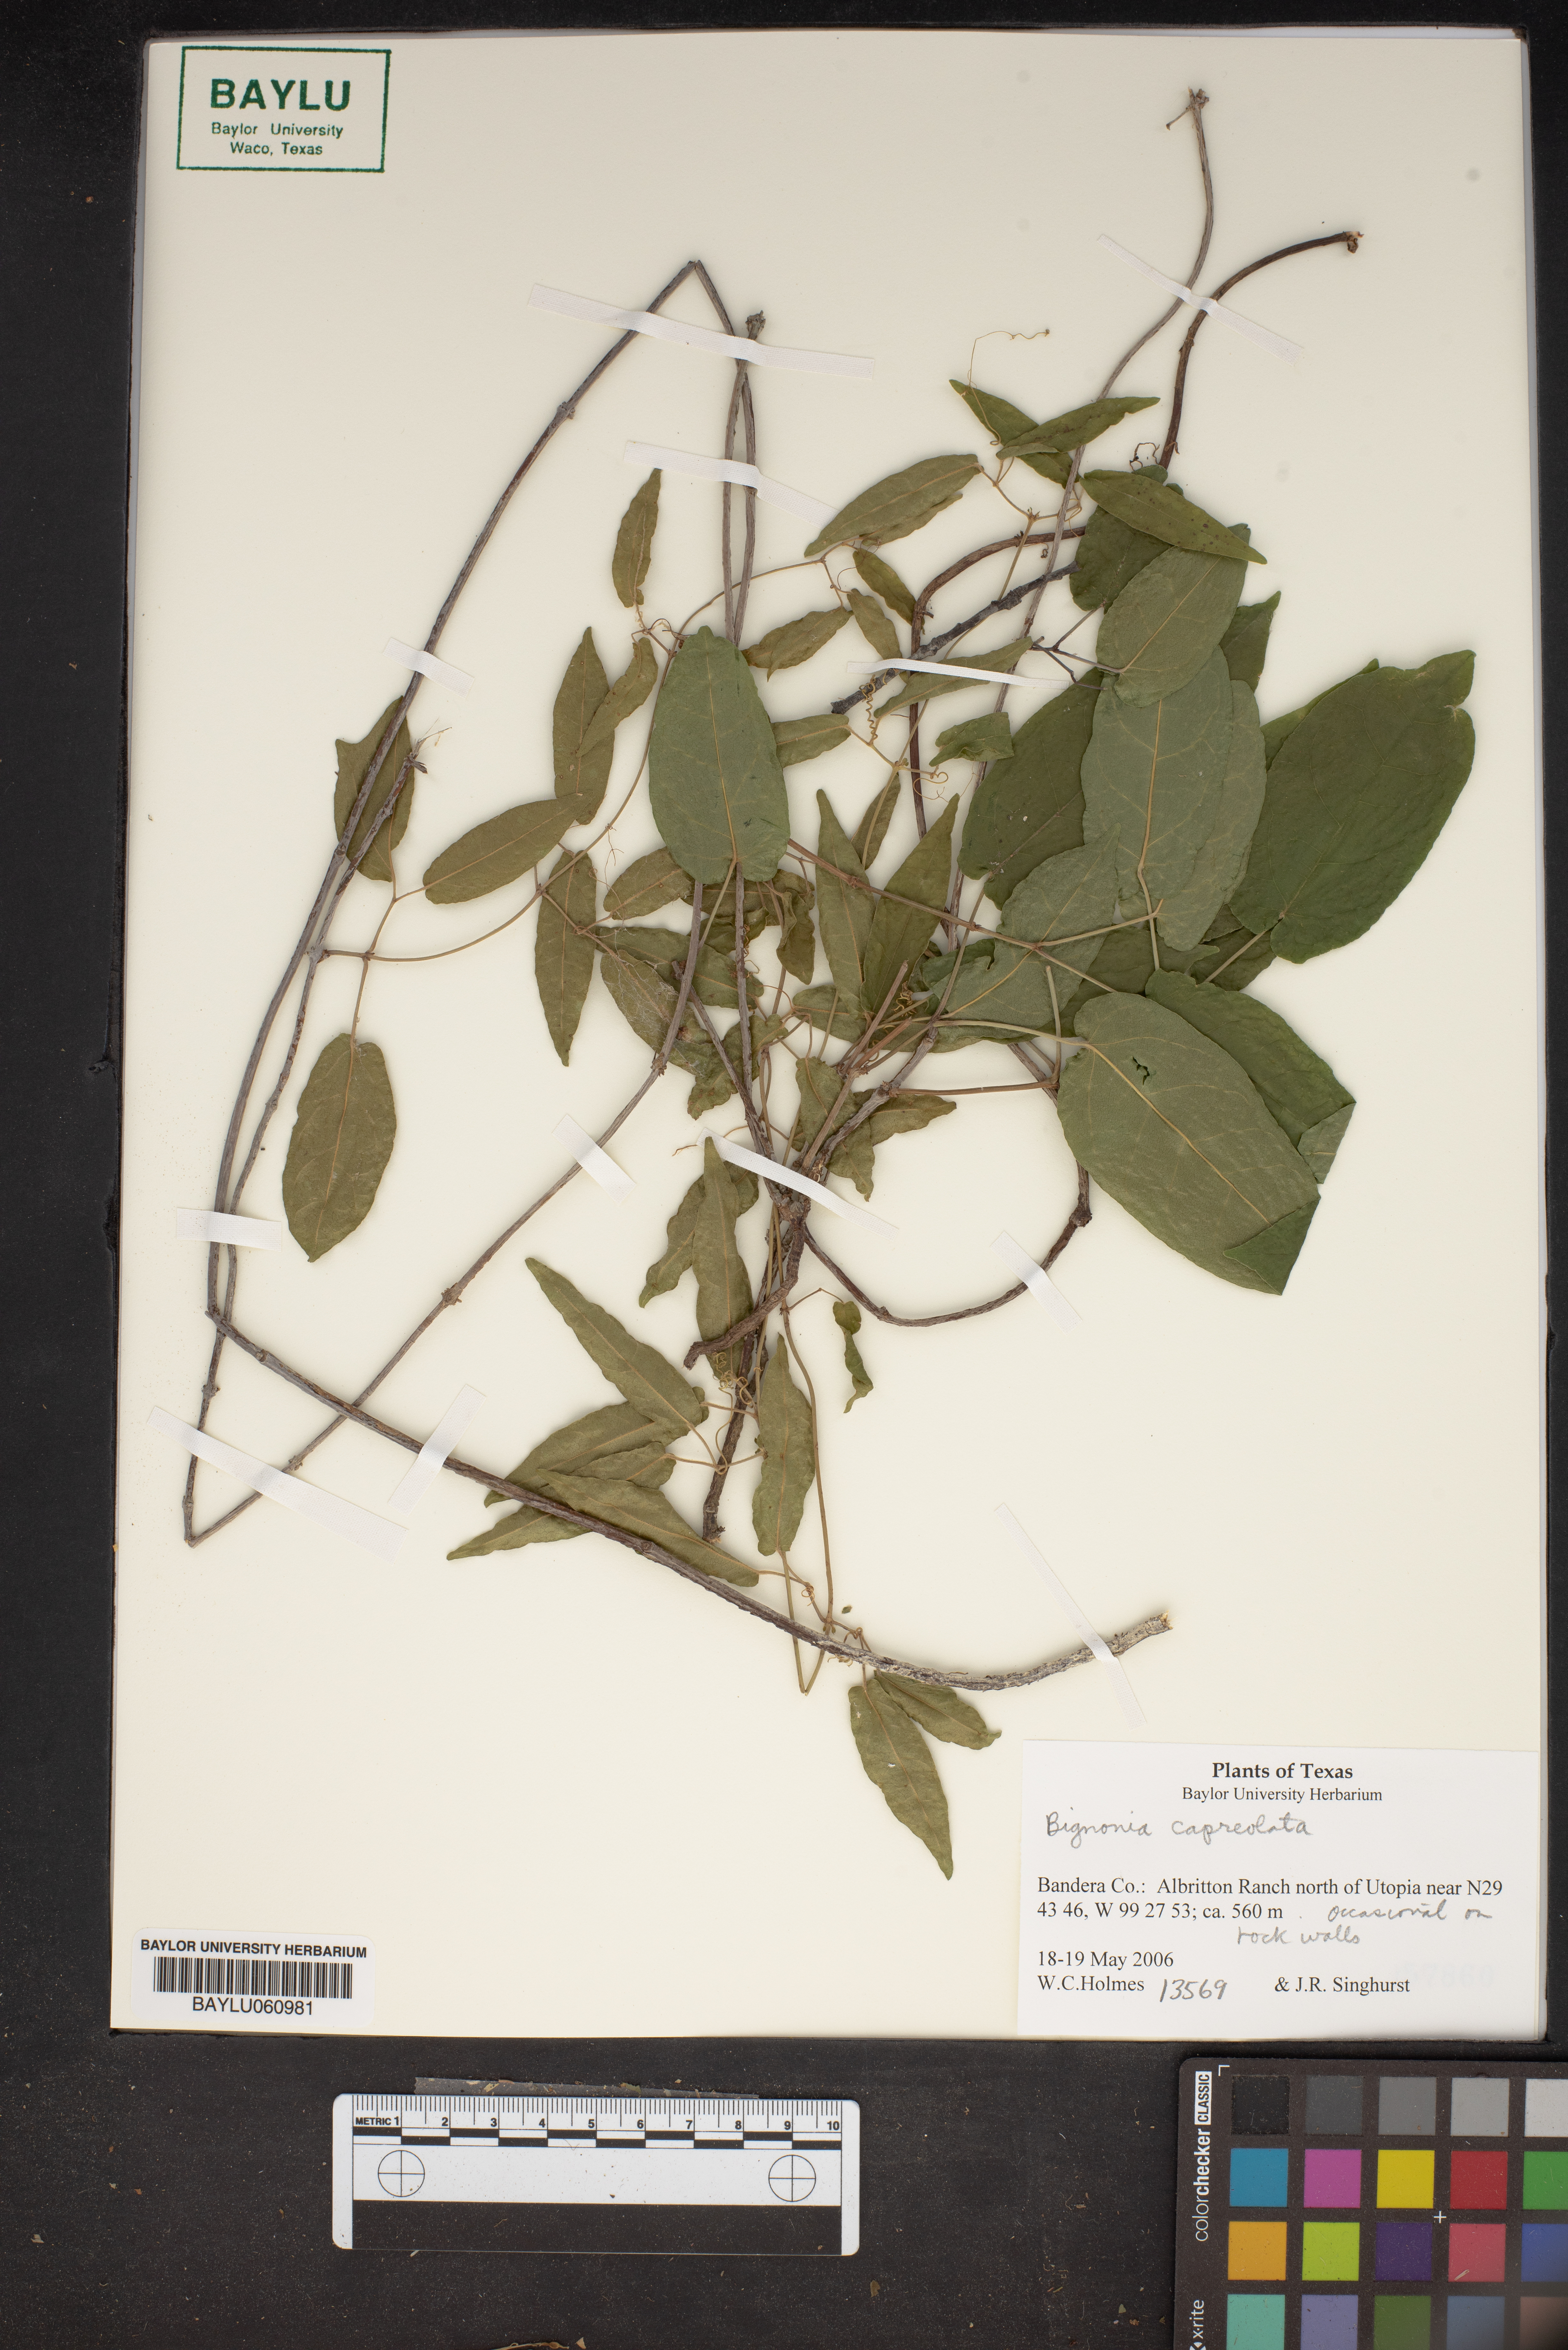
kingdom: Plantae
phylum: Tracheophyta
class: Magnoliopsida
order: Lamiales
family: Bignoniaceae
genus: Bignonia
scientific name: Bignonia capreolata
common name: Crossvine
